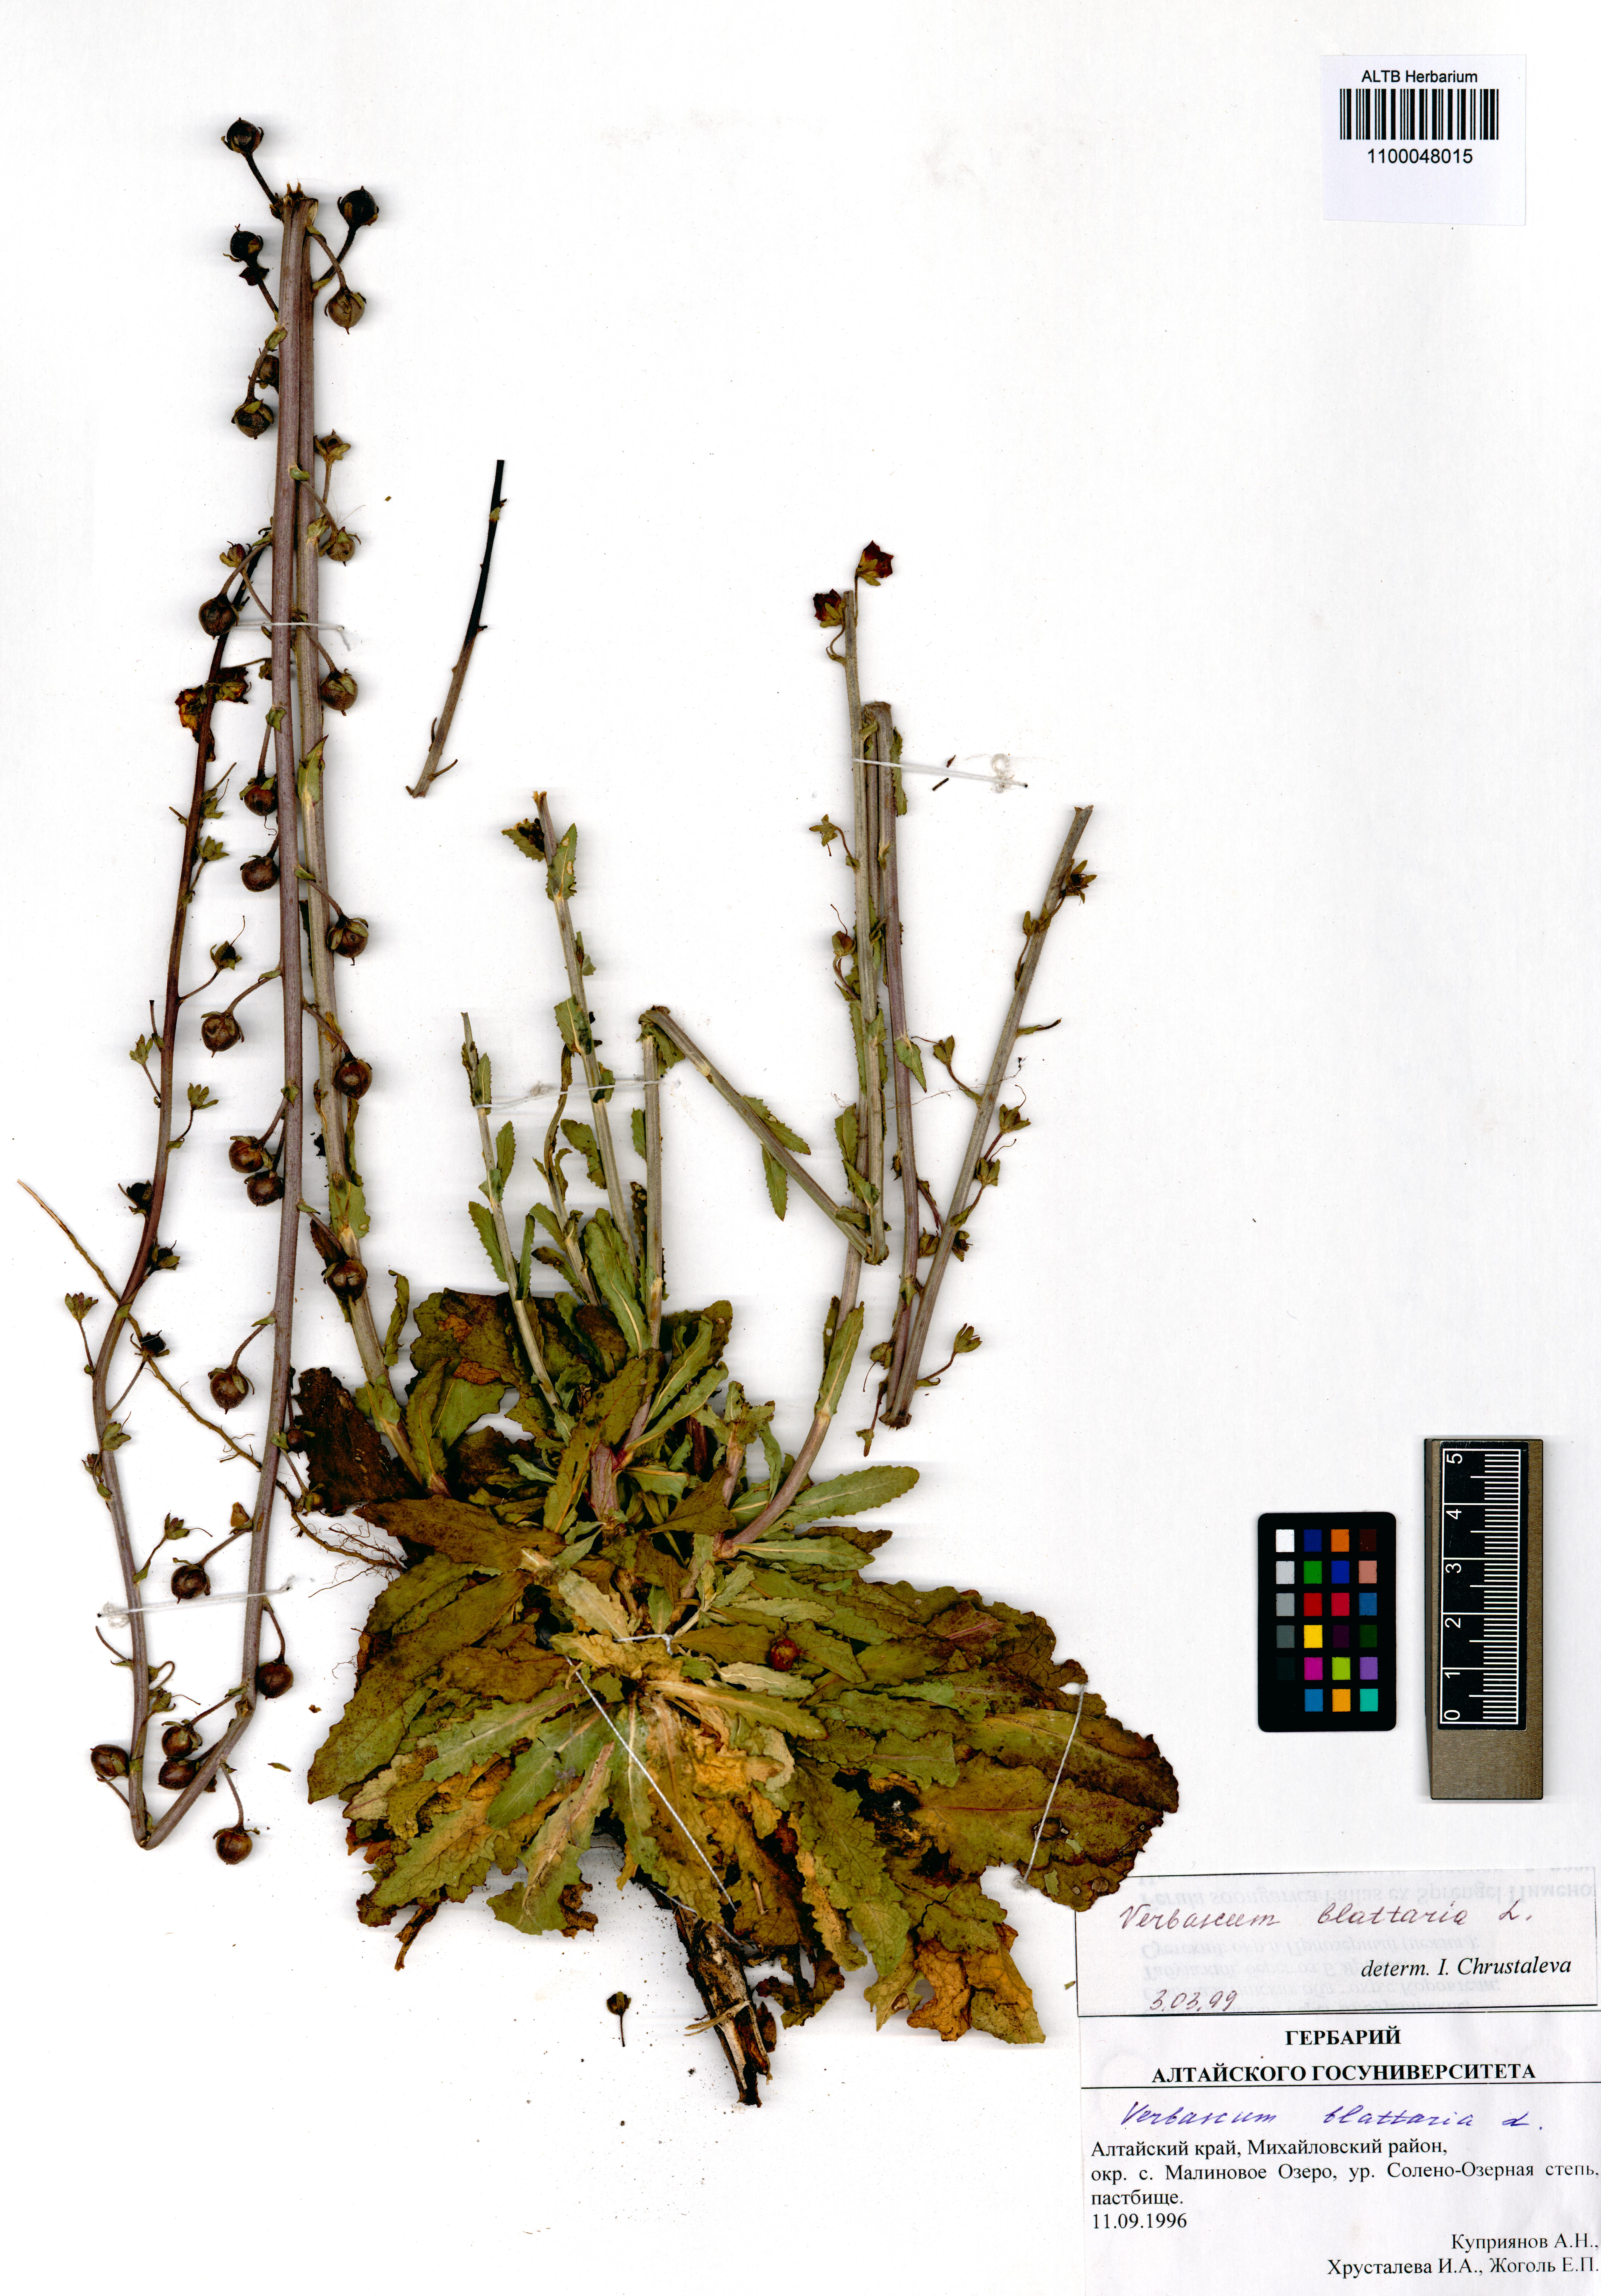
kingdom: Plantae
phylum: Tracheophyta
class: Magnoliopsida
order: Lamiales
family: Scrophulariaceae
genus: Verbascum
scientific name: Verbascum blattaria
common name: Moth mullein
